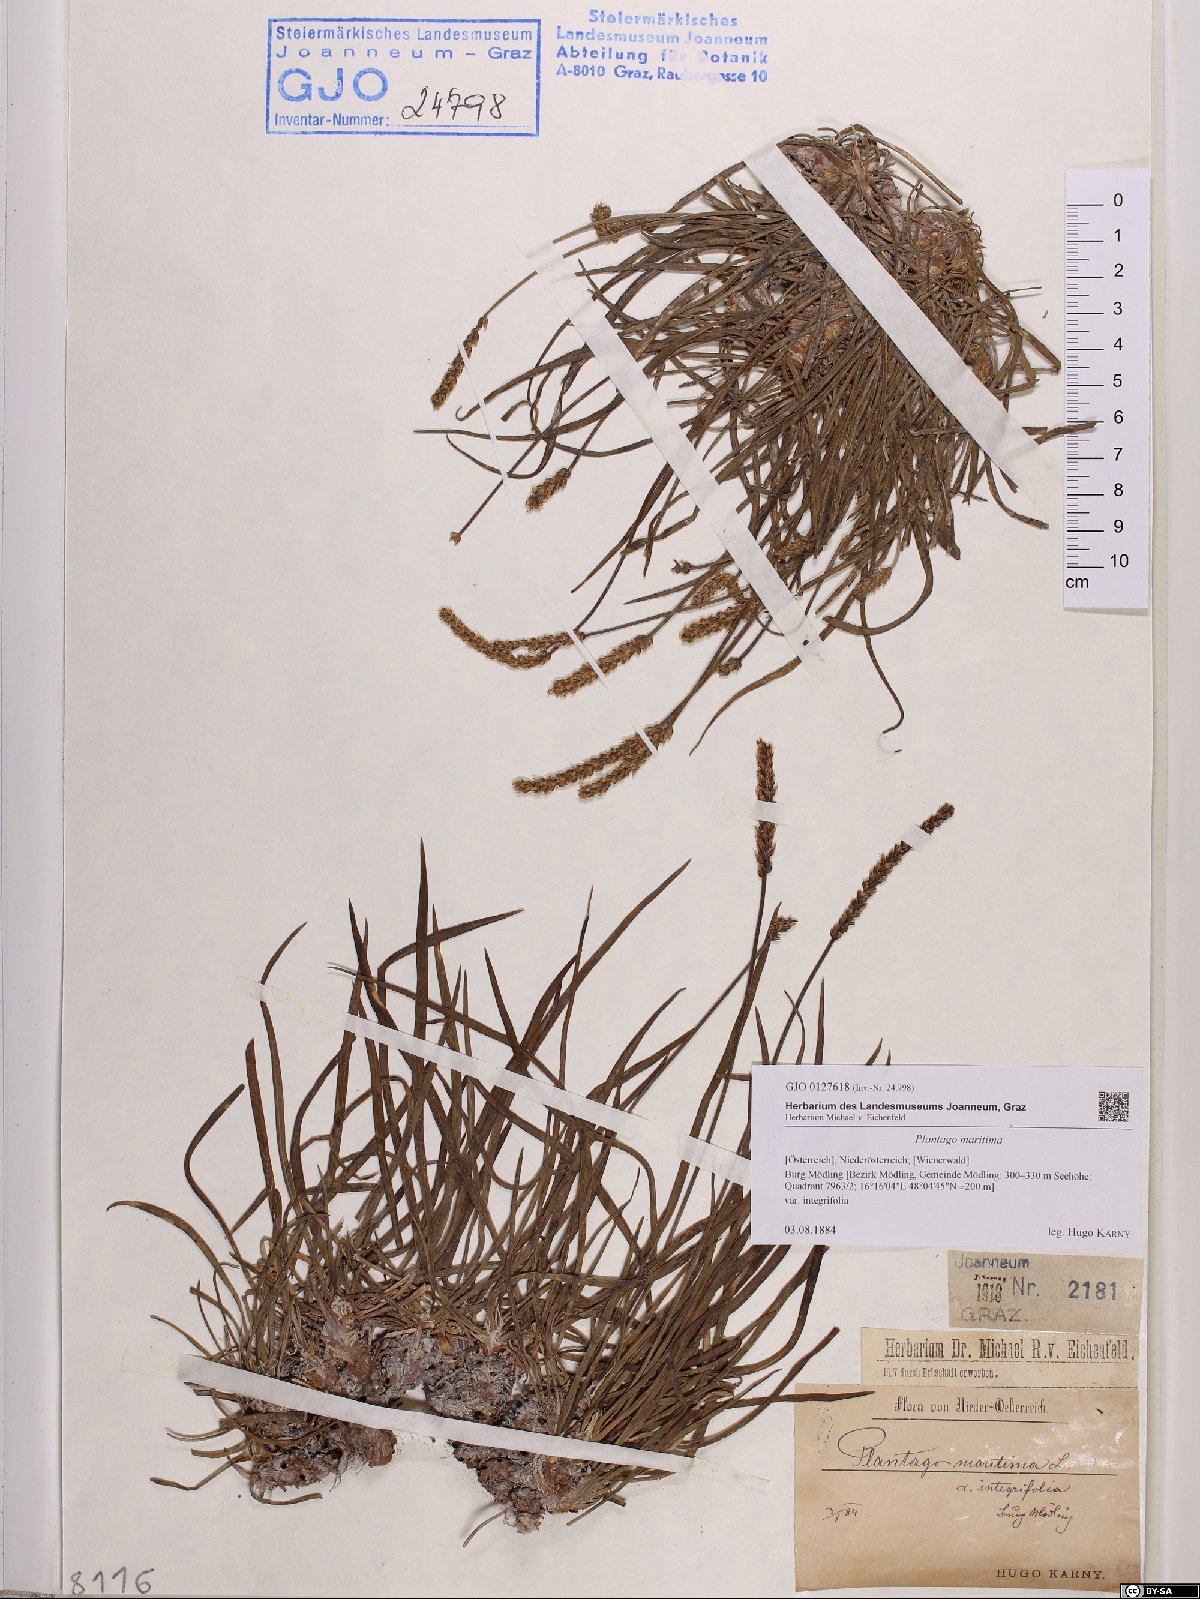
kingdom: Plantae
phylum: Tracheophyta
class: Magnoliopsida
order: Lamiales
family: Plantaginaceae
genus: Plantago
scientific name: Plantago maritima
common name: Sea plantain
